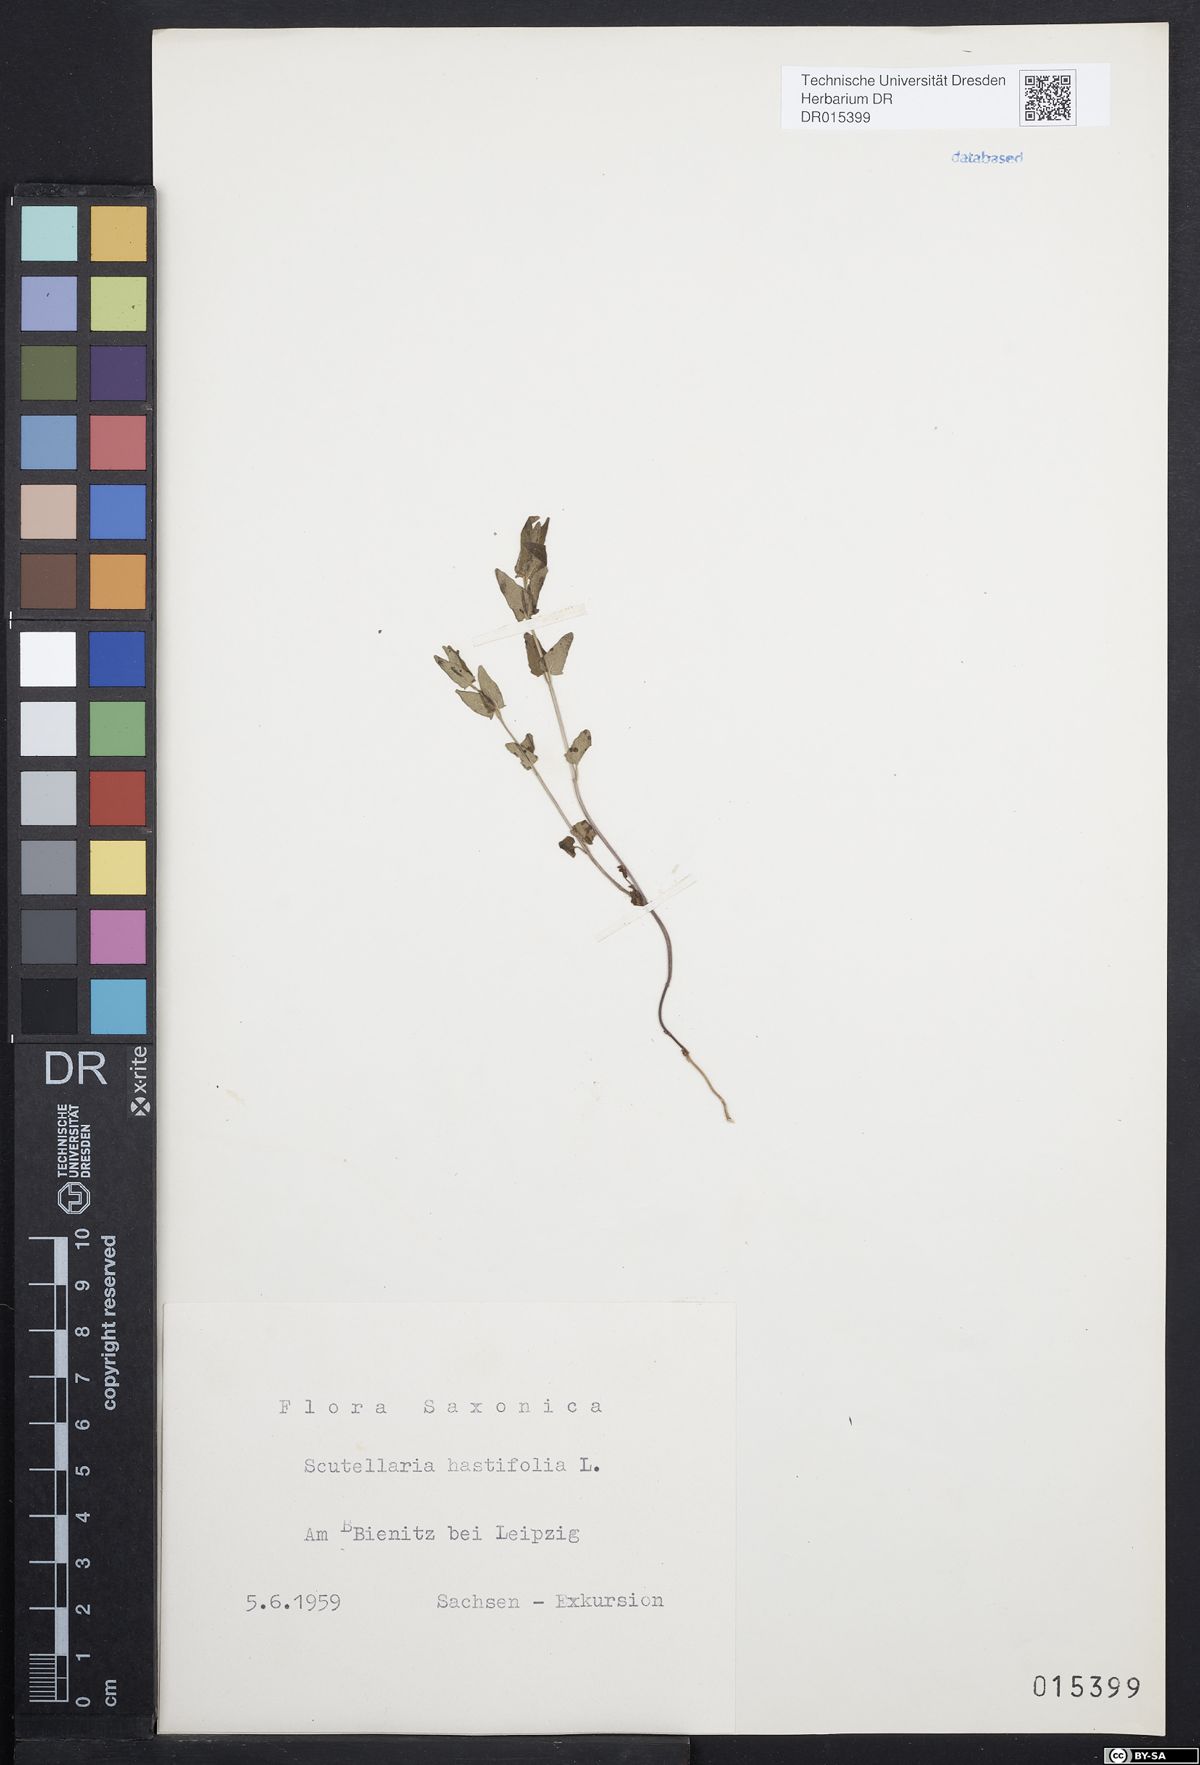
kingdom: Plantae
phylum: Tracheophyta
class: Magnoliopsida
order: Lamiales
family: Lamiaceae
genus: Scutellaria
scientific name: Scutellaria hastifolia
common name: Norfolk skullcap
